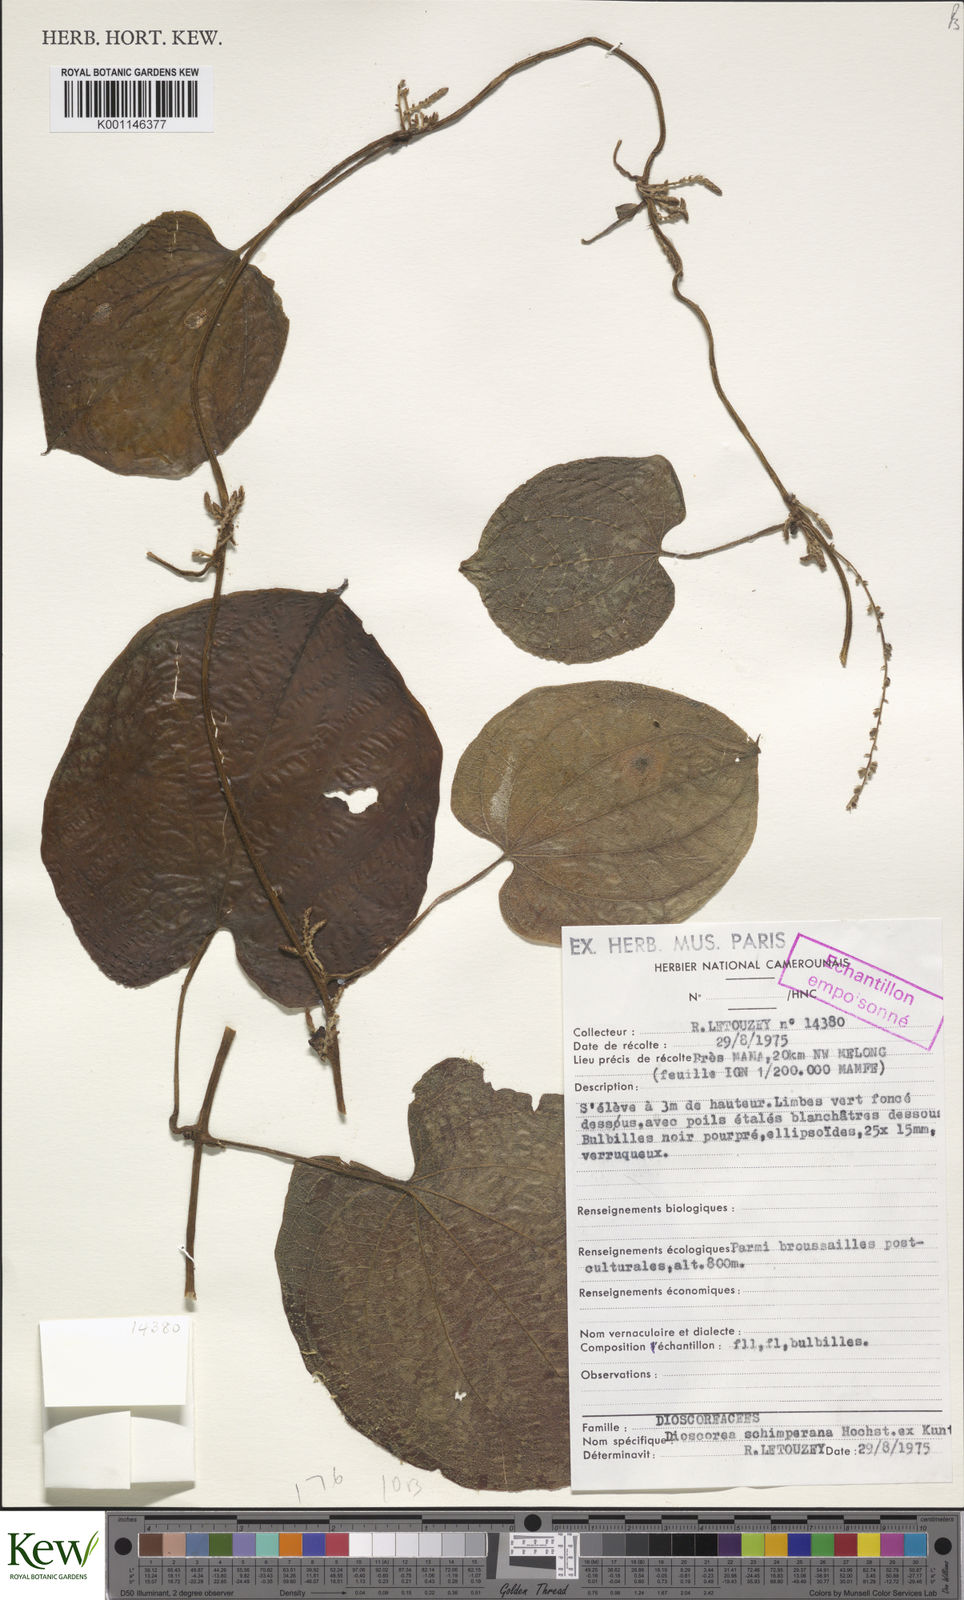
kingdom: Plantae
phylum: Tracheophyta
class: Liliopsida
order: Dioscoreales
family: Dioscoreaceae
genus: Dioscorea
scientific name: Dioscorea schimperiana
